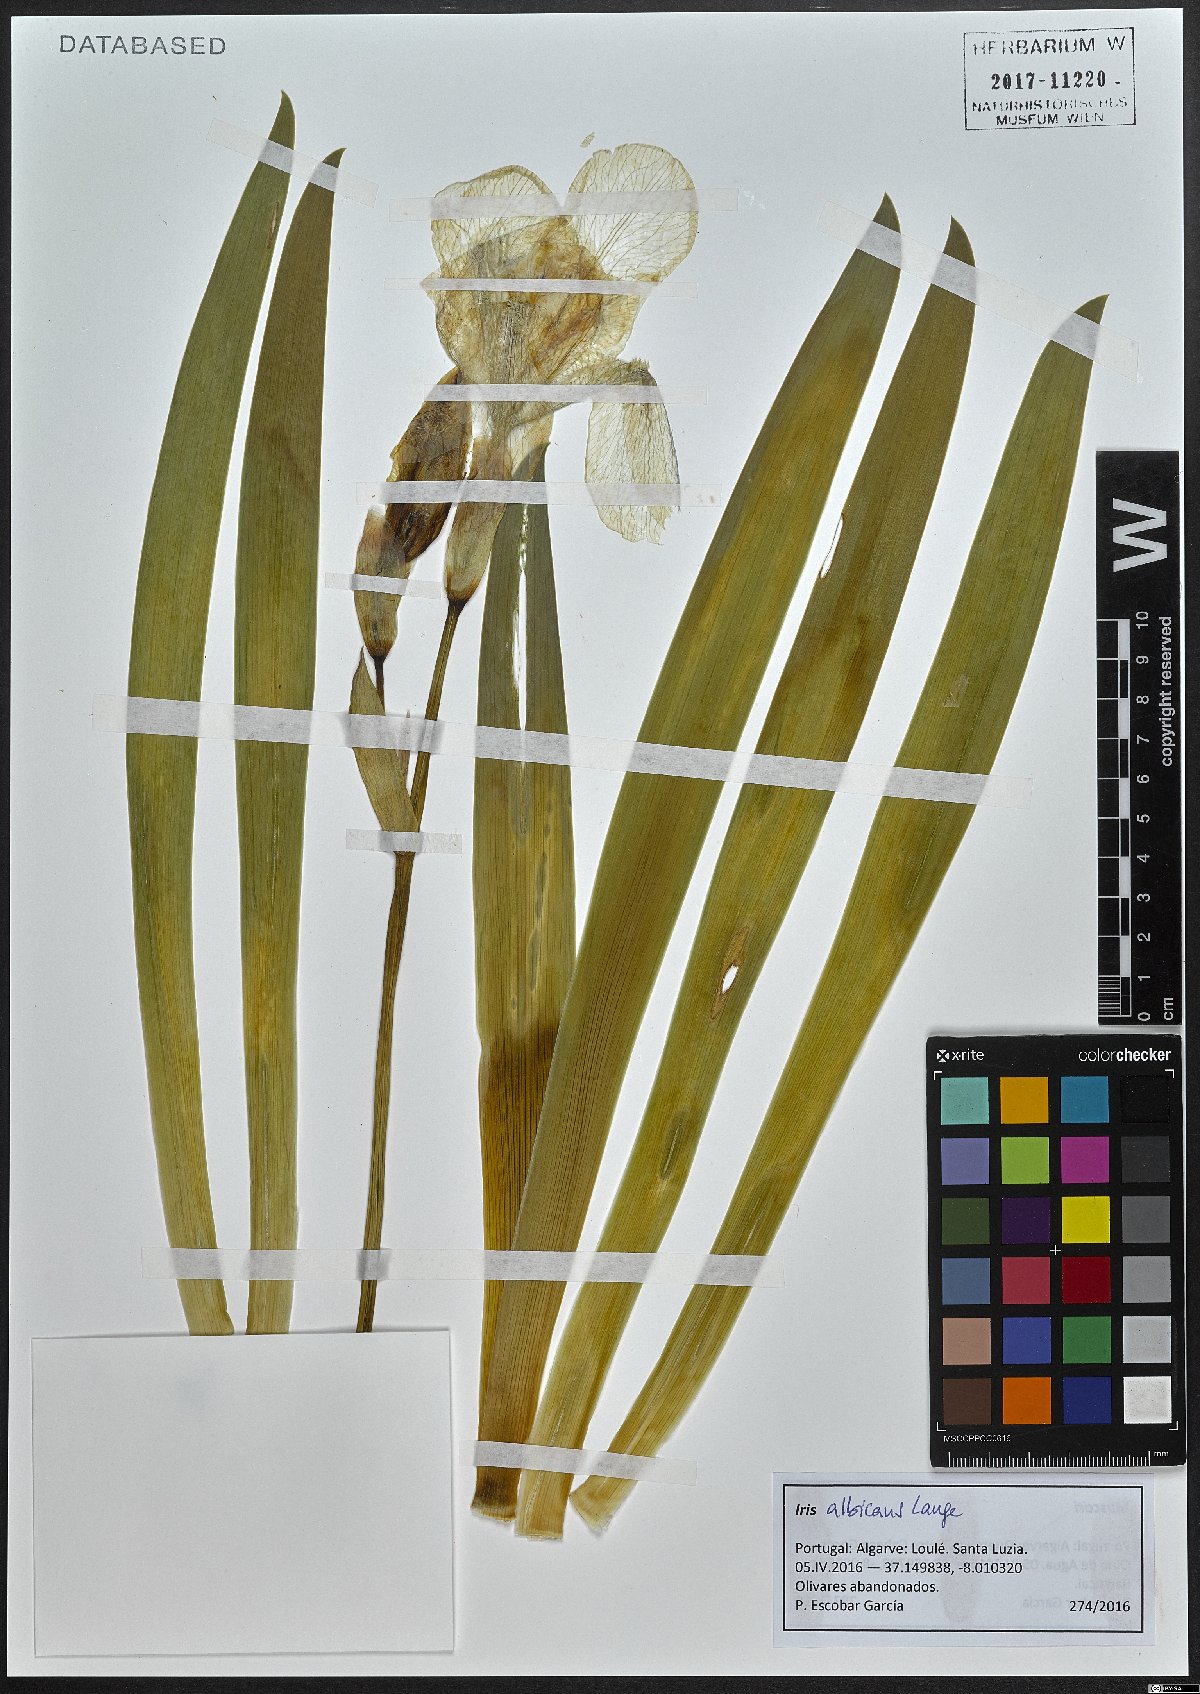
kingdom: Plantae
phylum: Tracheophyta
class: Liliopsida
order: Asparagales
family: Iridaceae
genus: Iris
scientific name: Iris florentina
